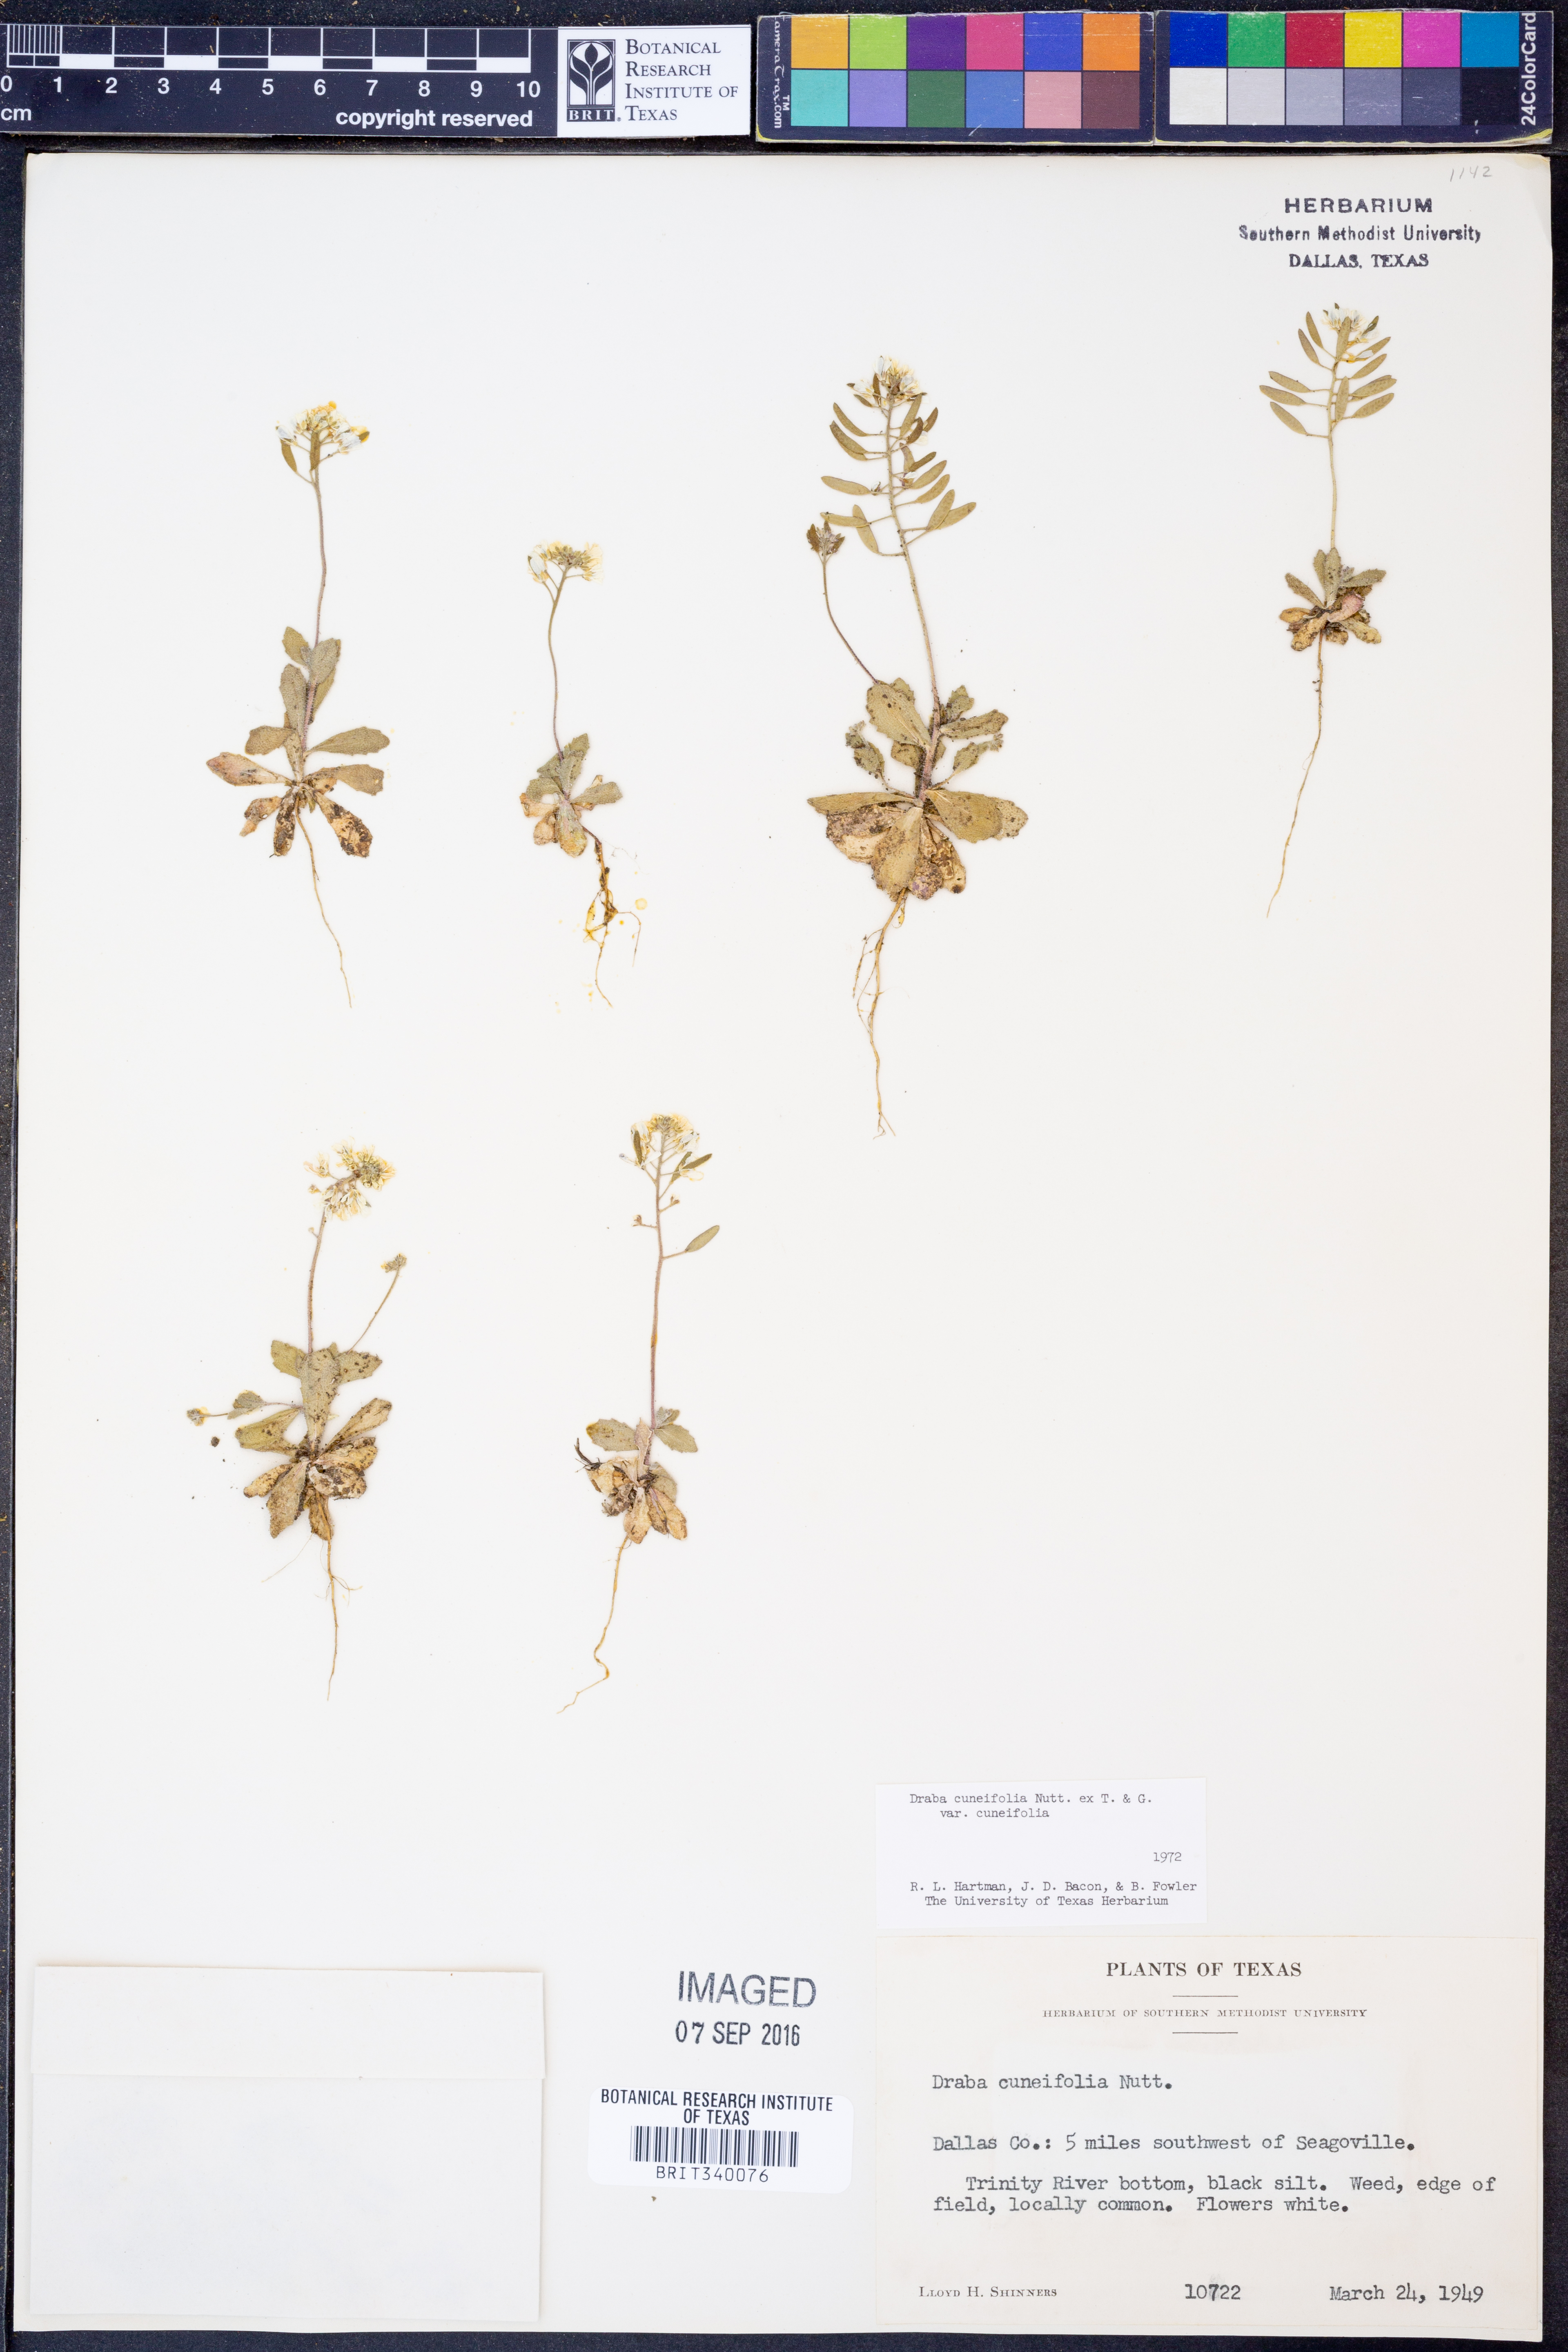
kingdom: Plantae
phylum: Tracheophyta
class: Magnoliopsida
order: Brassicales
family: Brassicaceae
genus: Tomostima
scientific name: Tomostima cuneifolia
